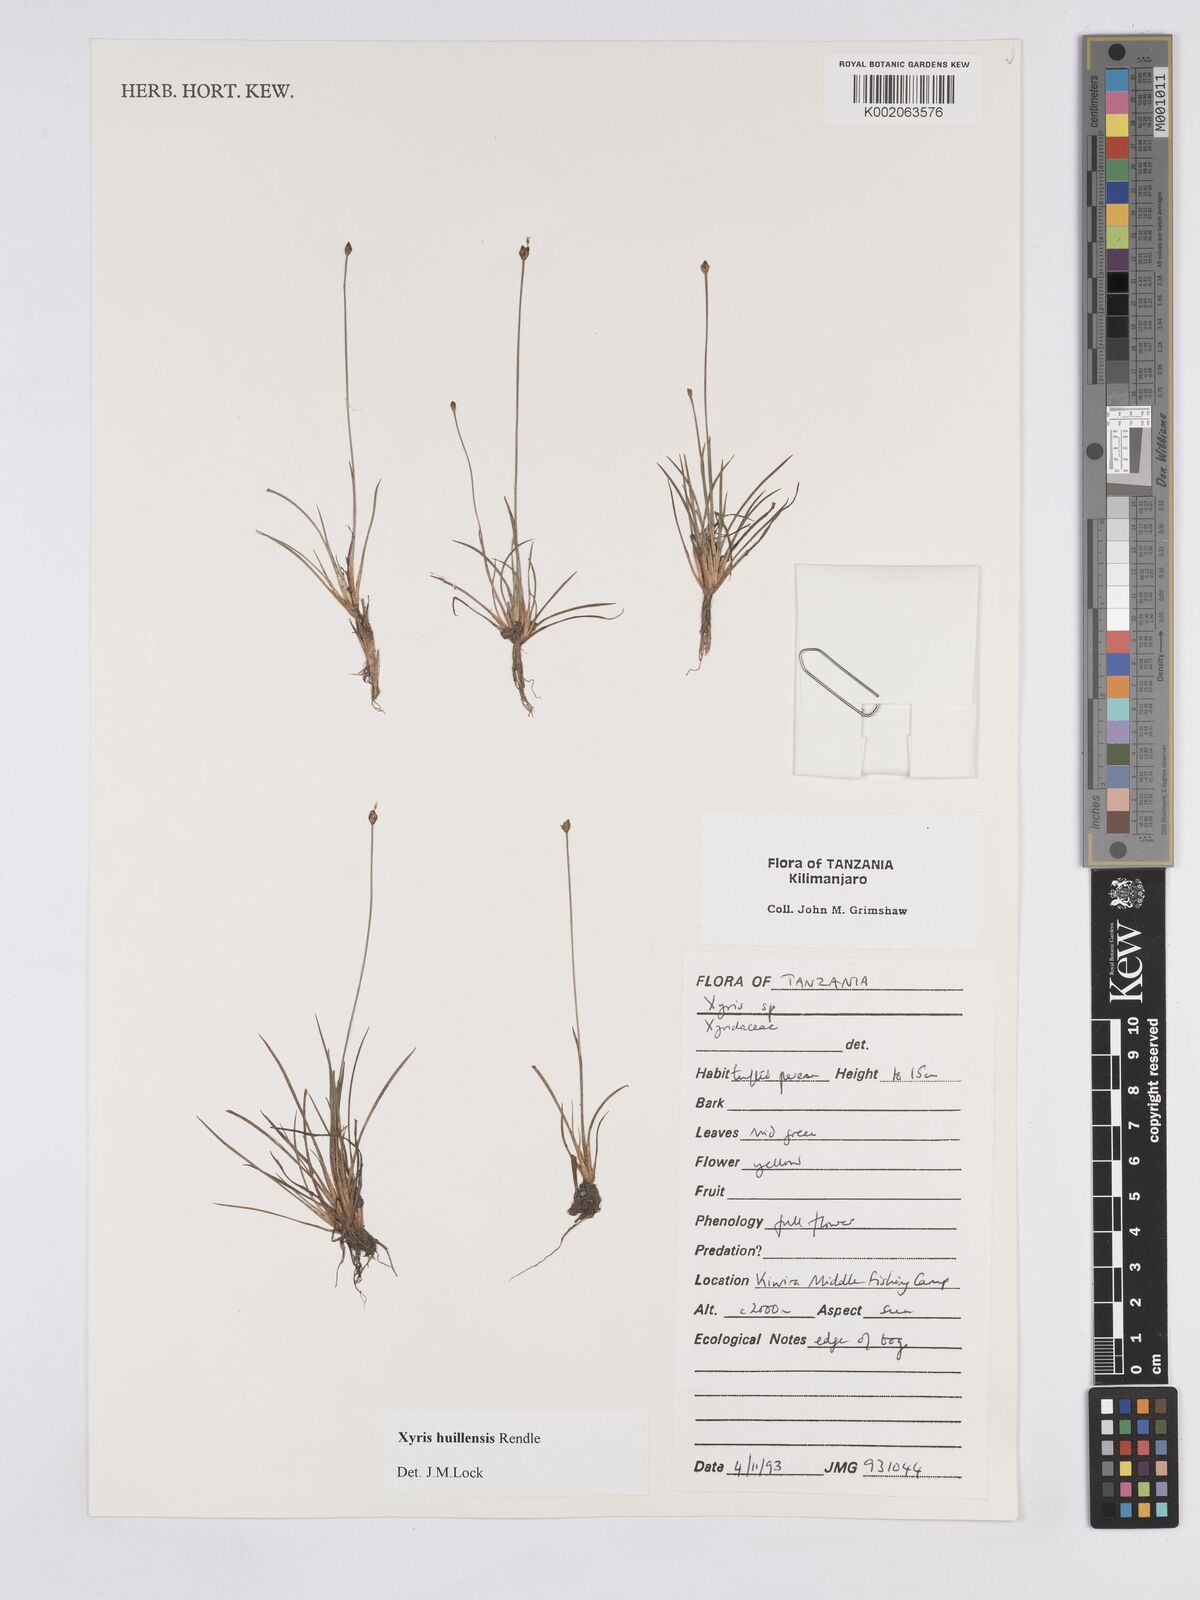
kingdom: Plantae
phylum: Tracheophyta
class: Liliopsida
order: Poales
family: Xyridaceae
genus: Xyris
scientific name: Xyris huillensis
